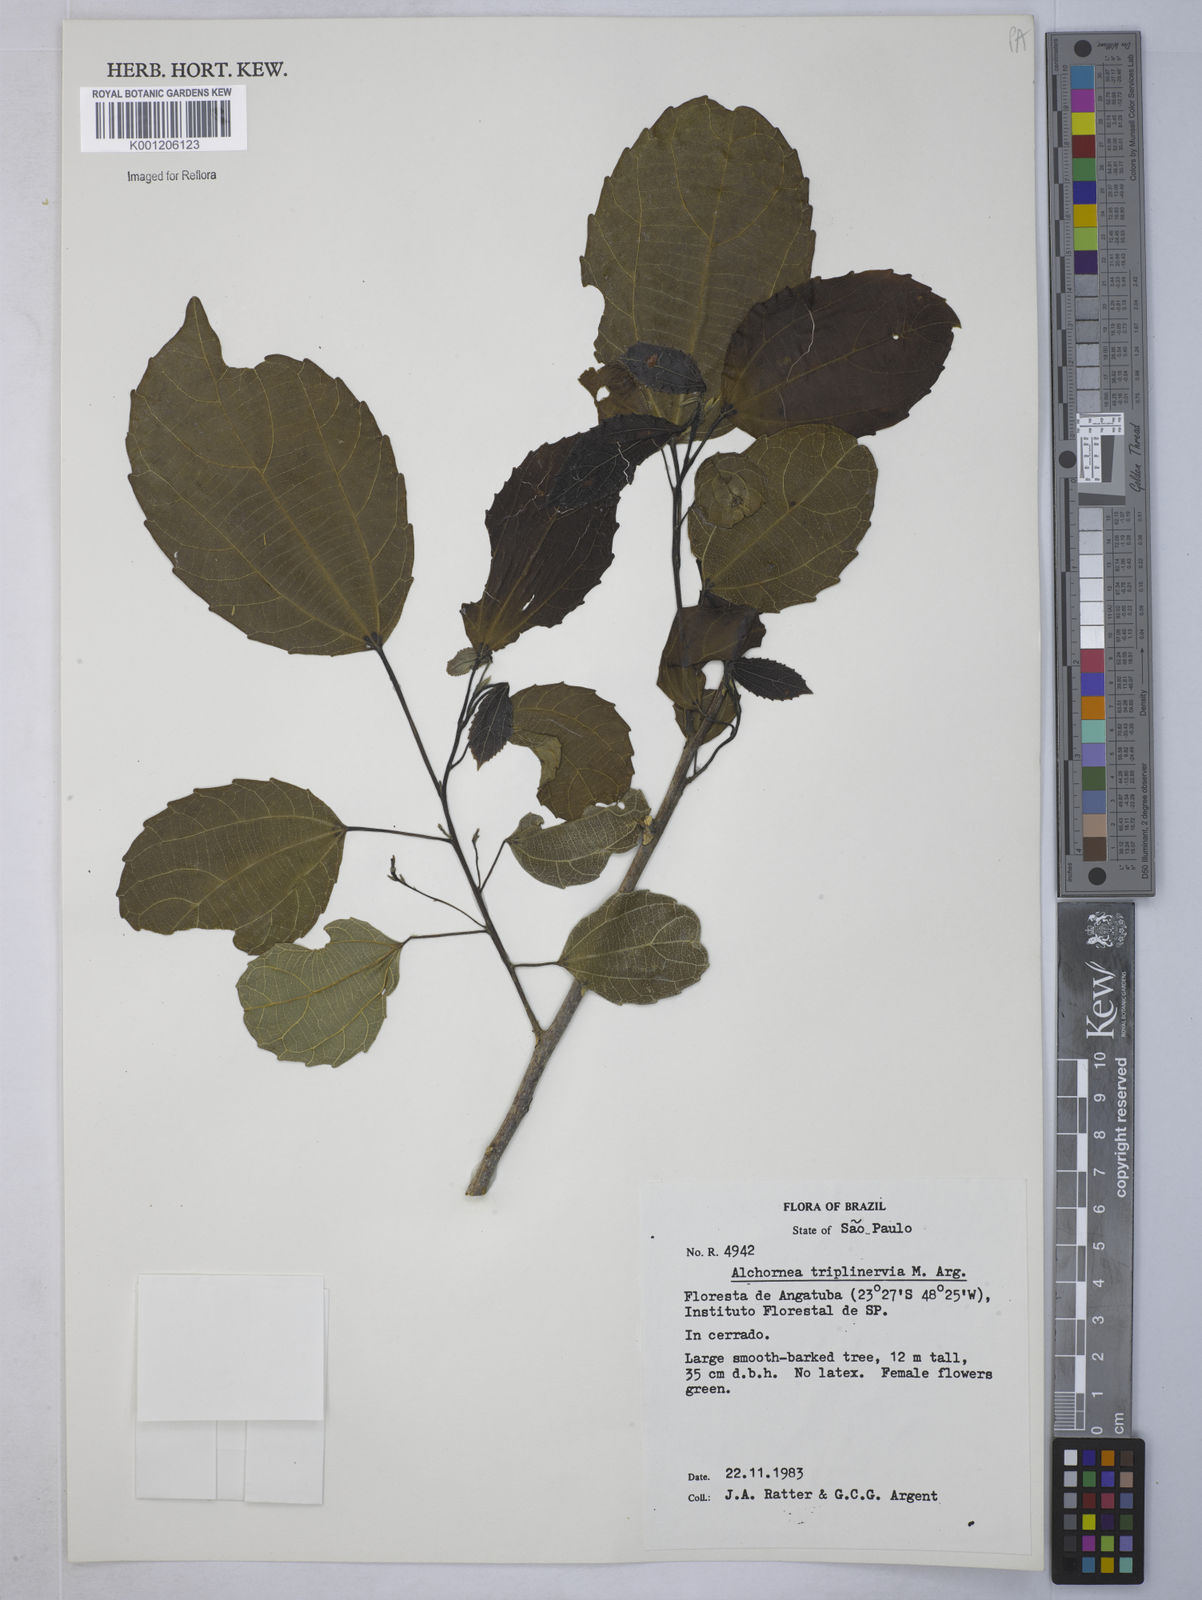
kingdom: Plantae
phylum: Tracheophyta
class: Magnoliopsida
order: Malpighiales
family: Euphorbiaceae
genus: Alchornea
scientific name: Alchornea
